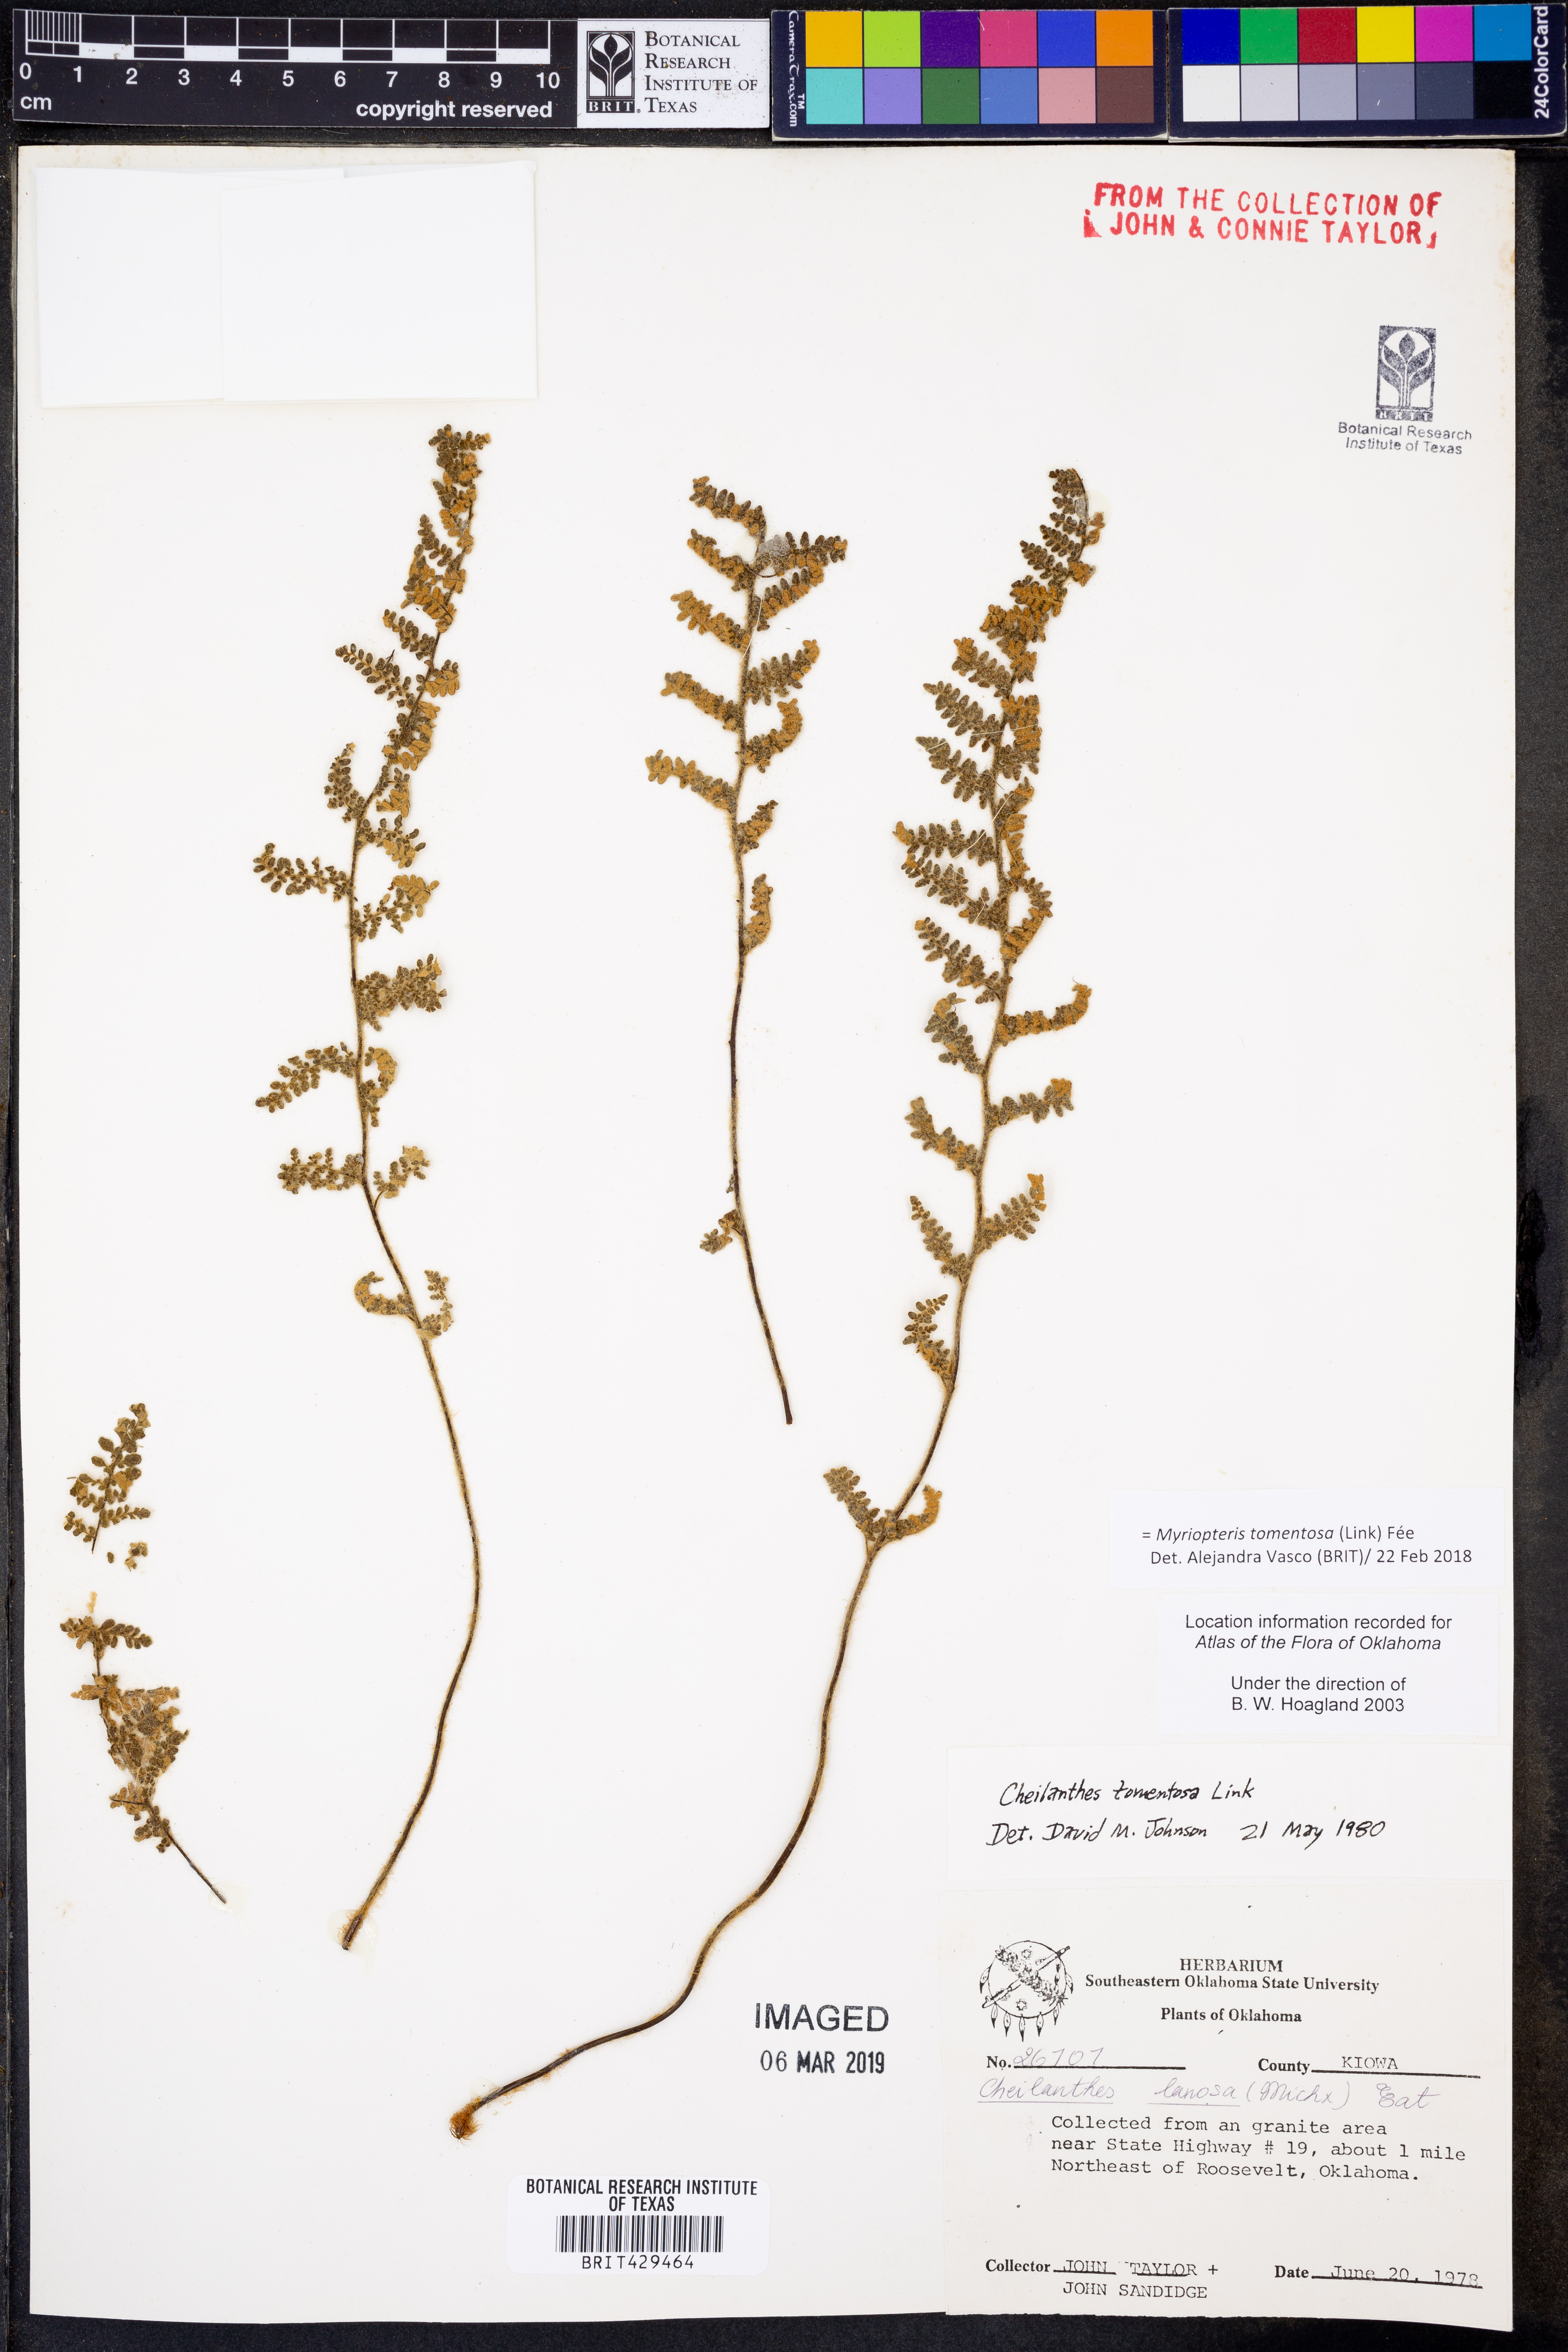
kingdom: Plantae
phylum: Tracheophyta
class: Polypodiopsida
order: Polypodiales
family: Pteridaceae
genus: Myriopteris
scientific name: Myriopteris tomentosa
